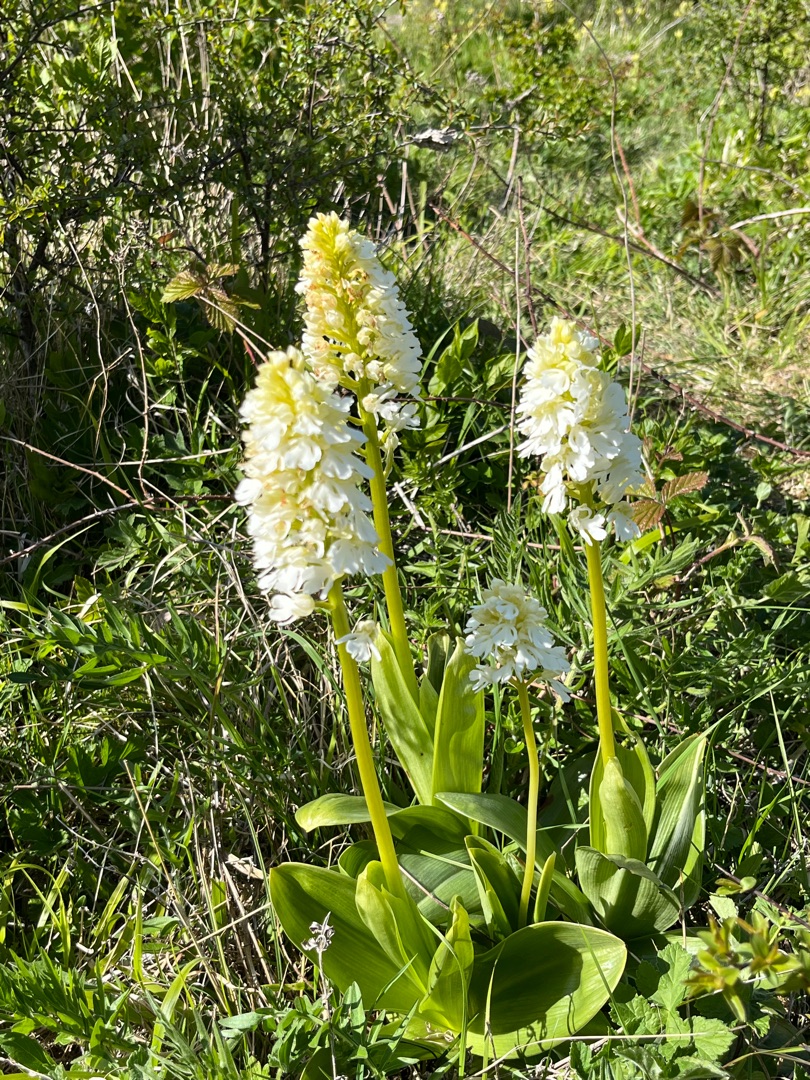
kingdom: Plantae
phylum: Tracheophyta
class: Liliopsida
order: Asparagales
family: Orchidaceae
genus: Orchis
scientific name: Orchis purpurea
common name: Stor gøgeurt
